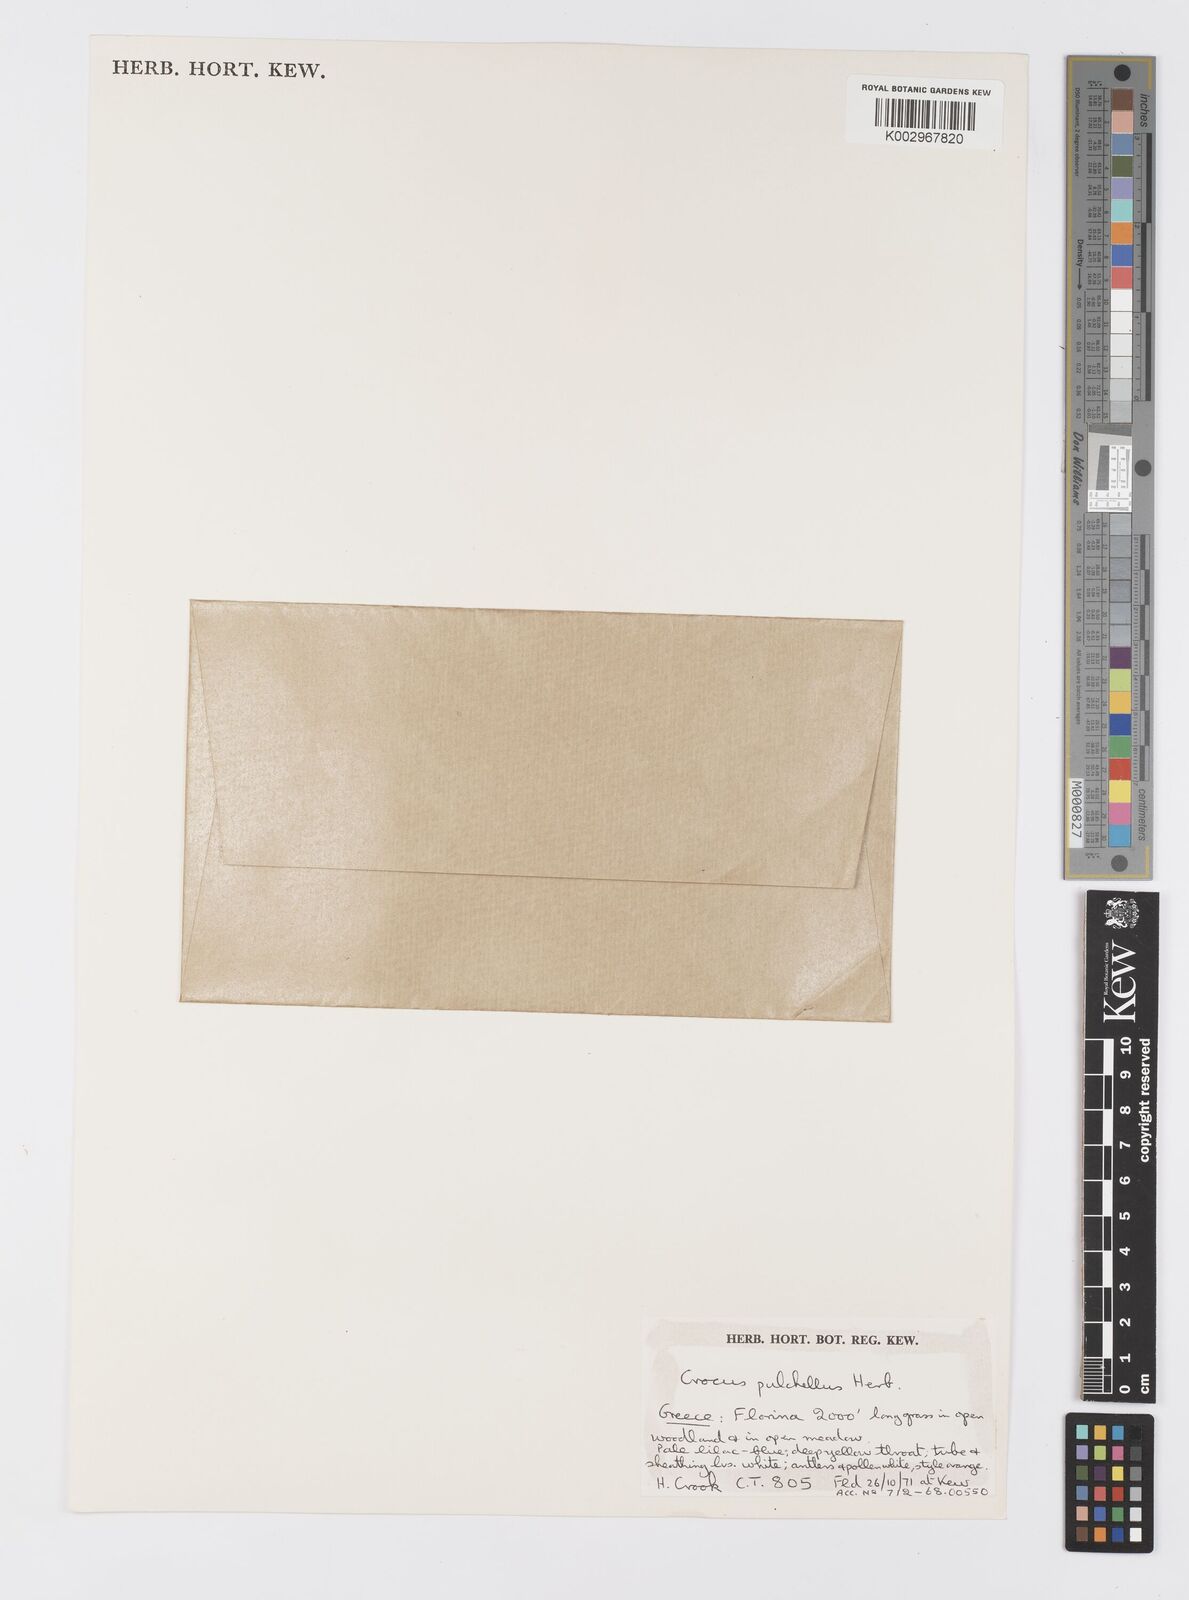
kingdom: Plantae
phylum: Tracheophyta
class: Liliopsida
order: Asparagales
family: Iridaceae
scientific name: Iridaceae
